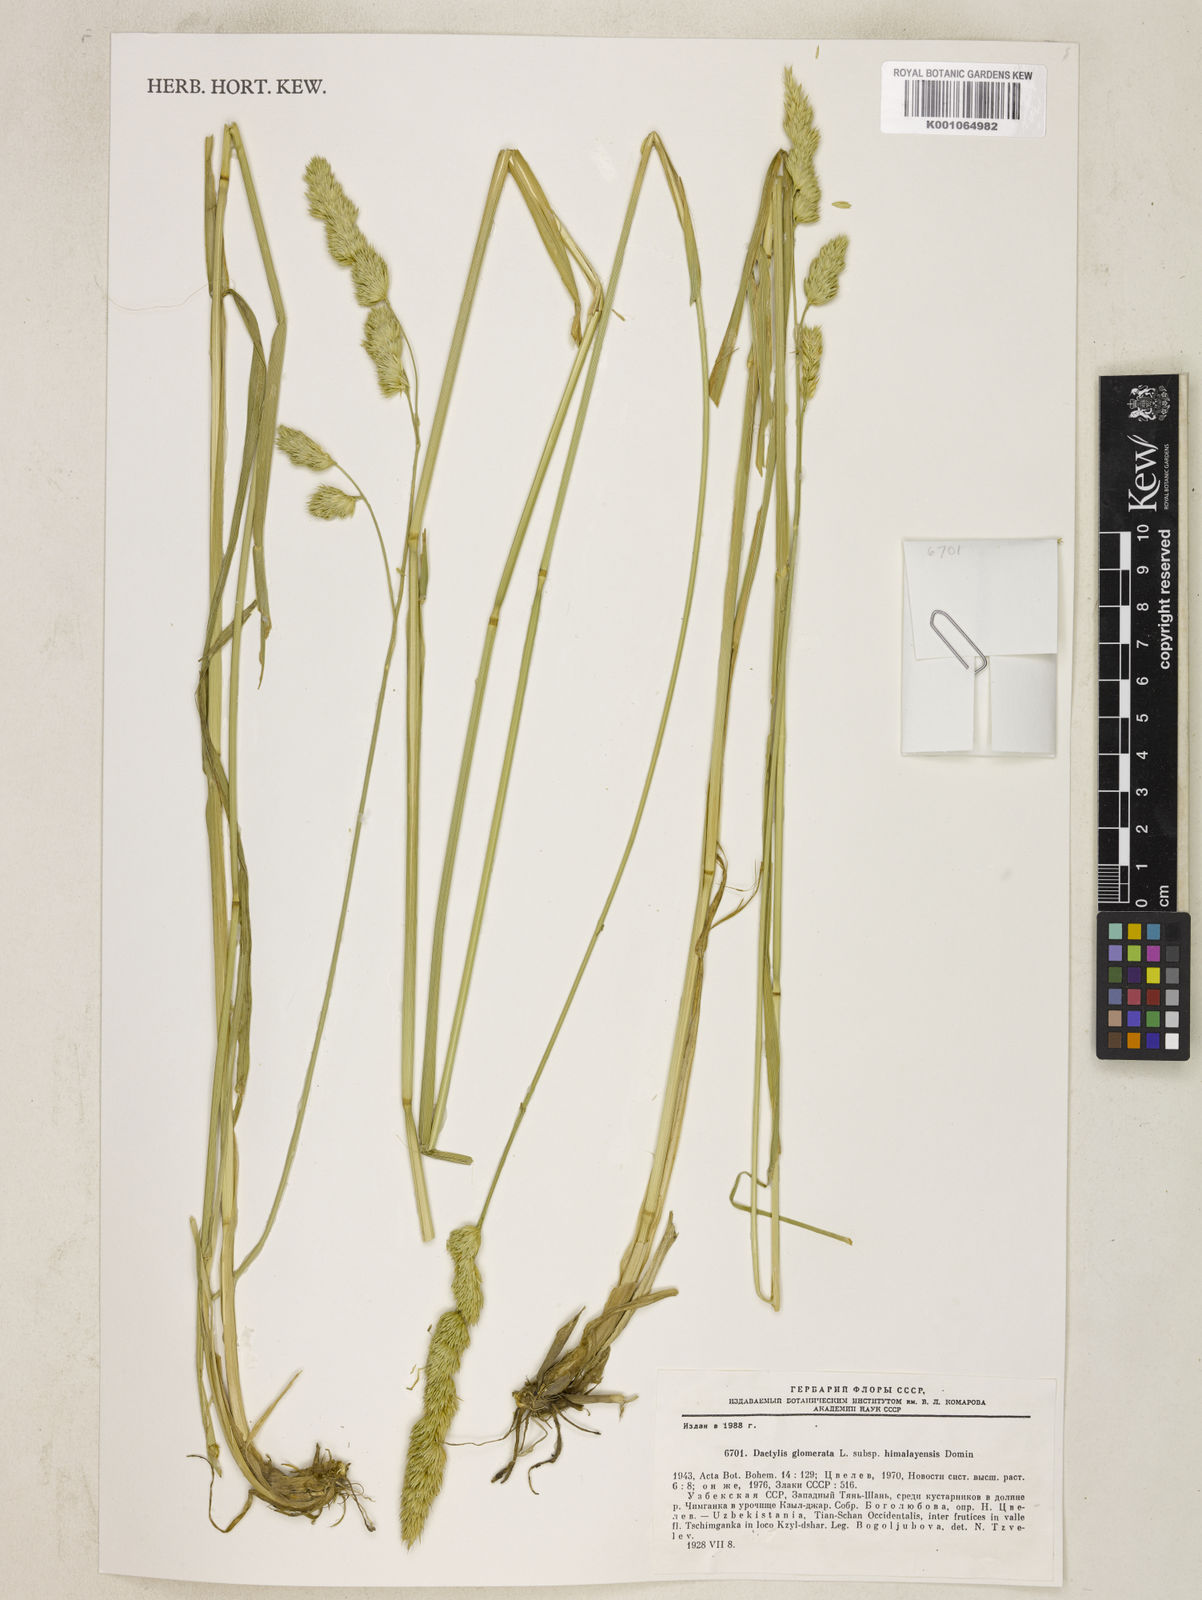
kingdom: Plantae
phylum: Tracheophyta
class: Liliopsida
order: Poales
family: Poaceae
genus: Dactylis
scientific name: Dactylis glomerata
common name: Orchardgrass
